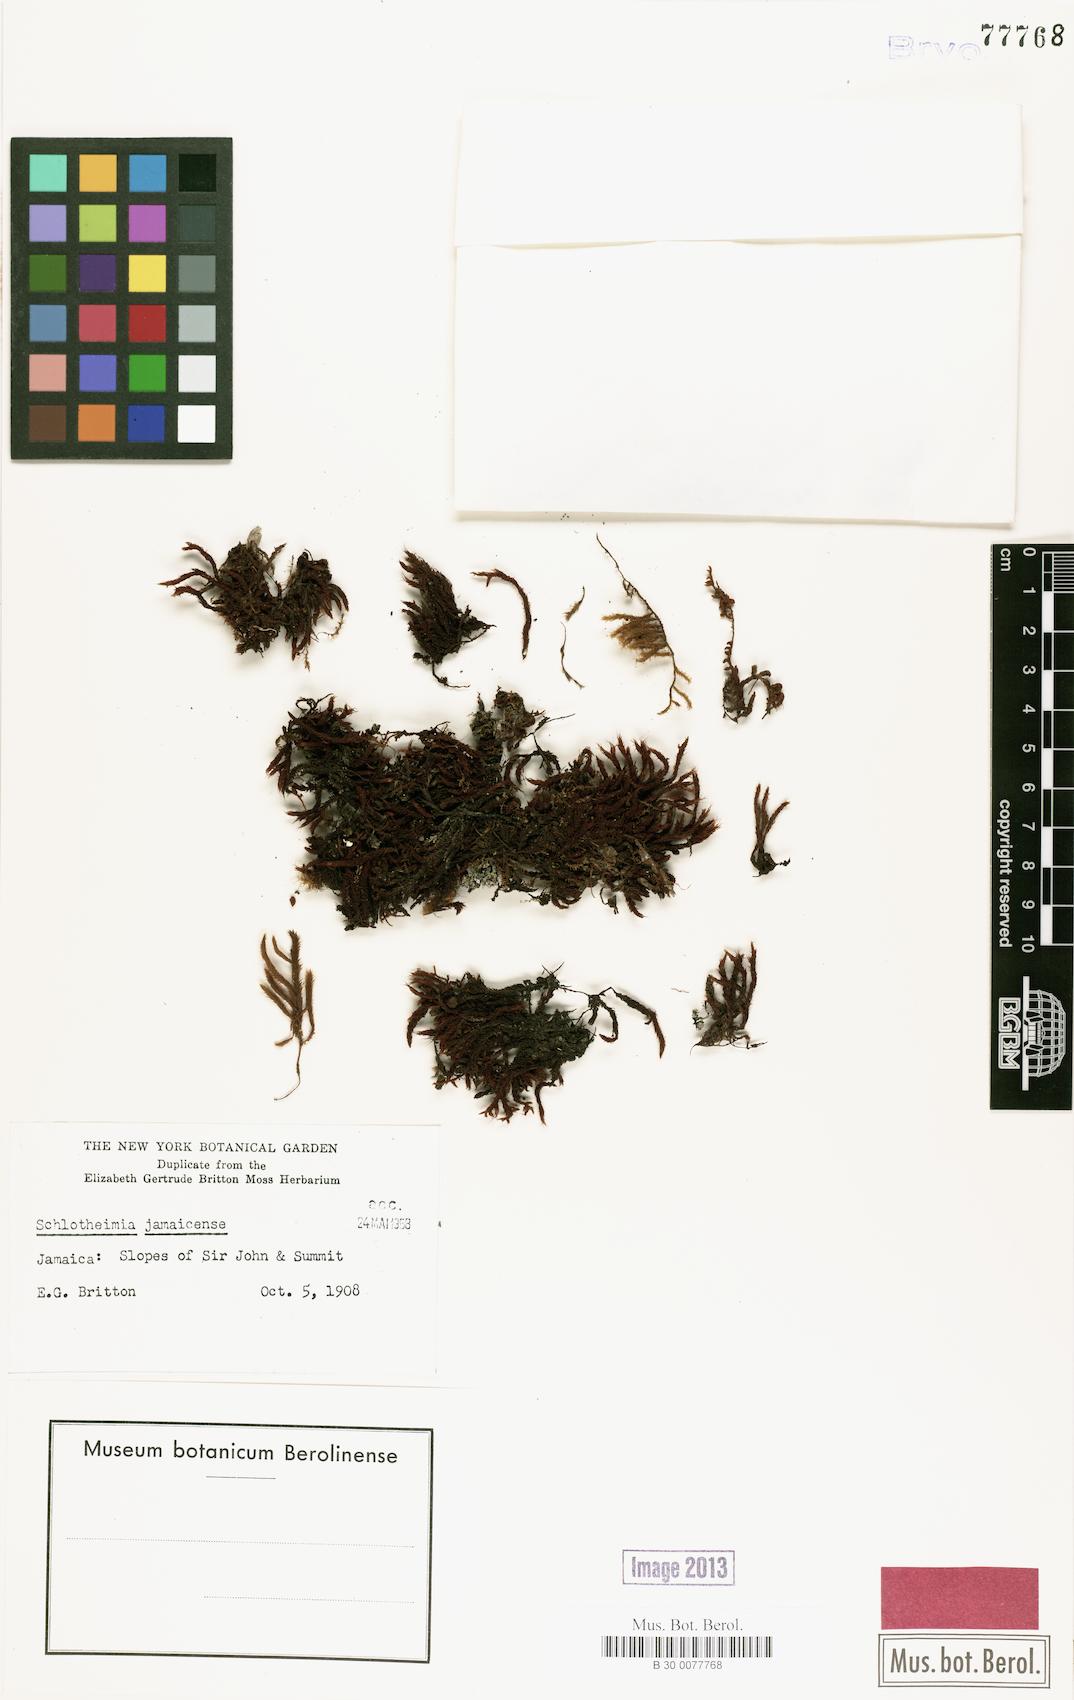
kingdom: Plantae
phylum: Bryophyta
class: Bryopsida
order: Orthotrichales
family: Orthotrichaceae
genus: Schlotheimia
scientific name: Schlotheimia
